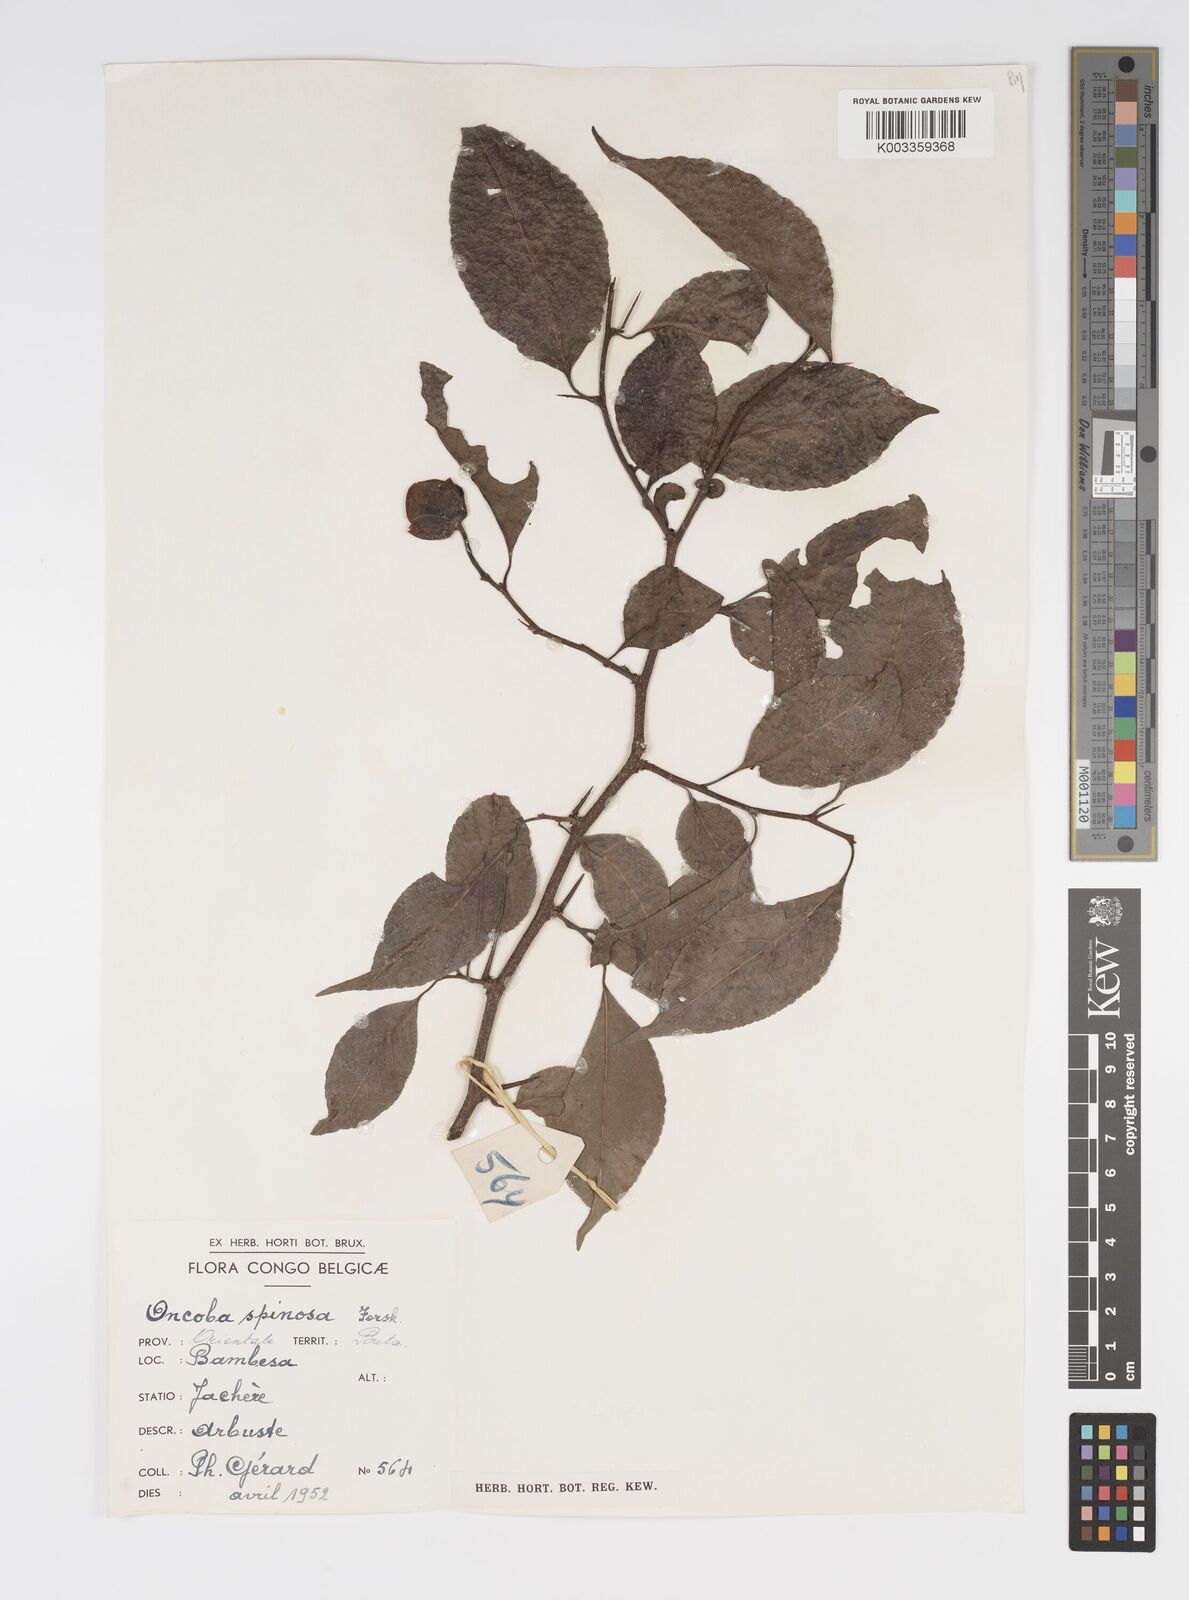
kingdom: Plantae
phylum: Tracheophyta
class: Magnoliopsida
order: Malpighiales
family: Salicaceae
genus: Oncoba
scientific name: Oncoba spinosa
